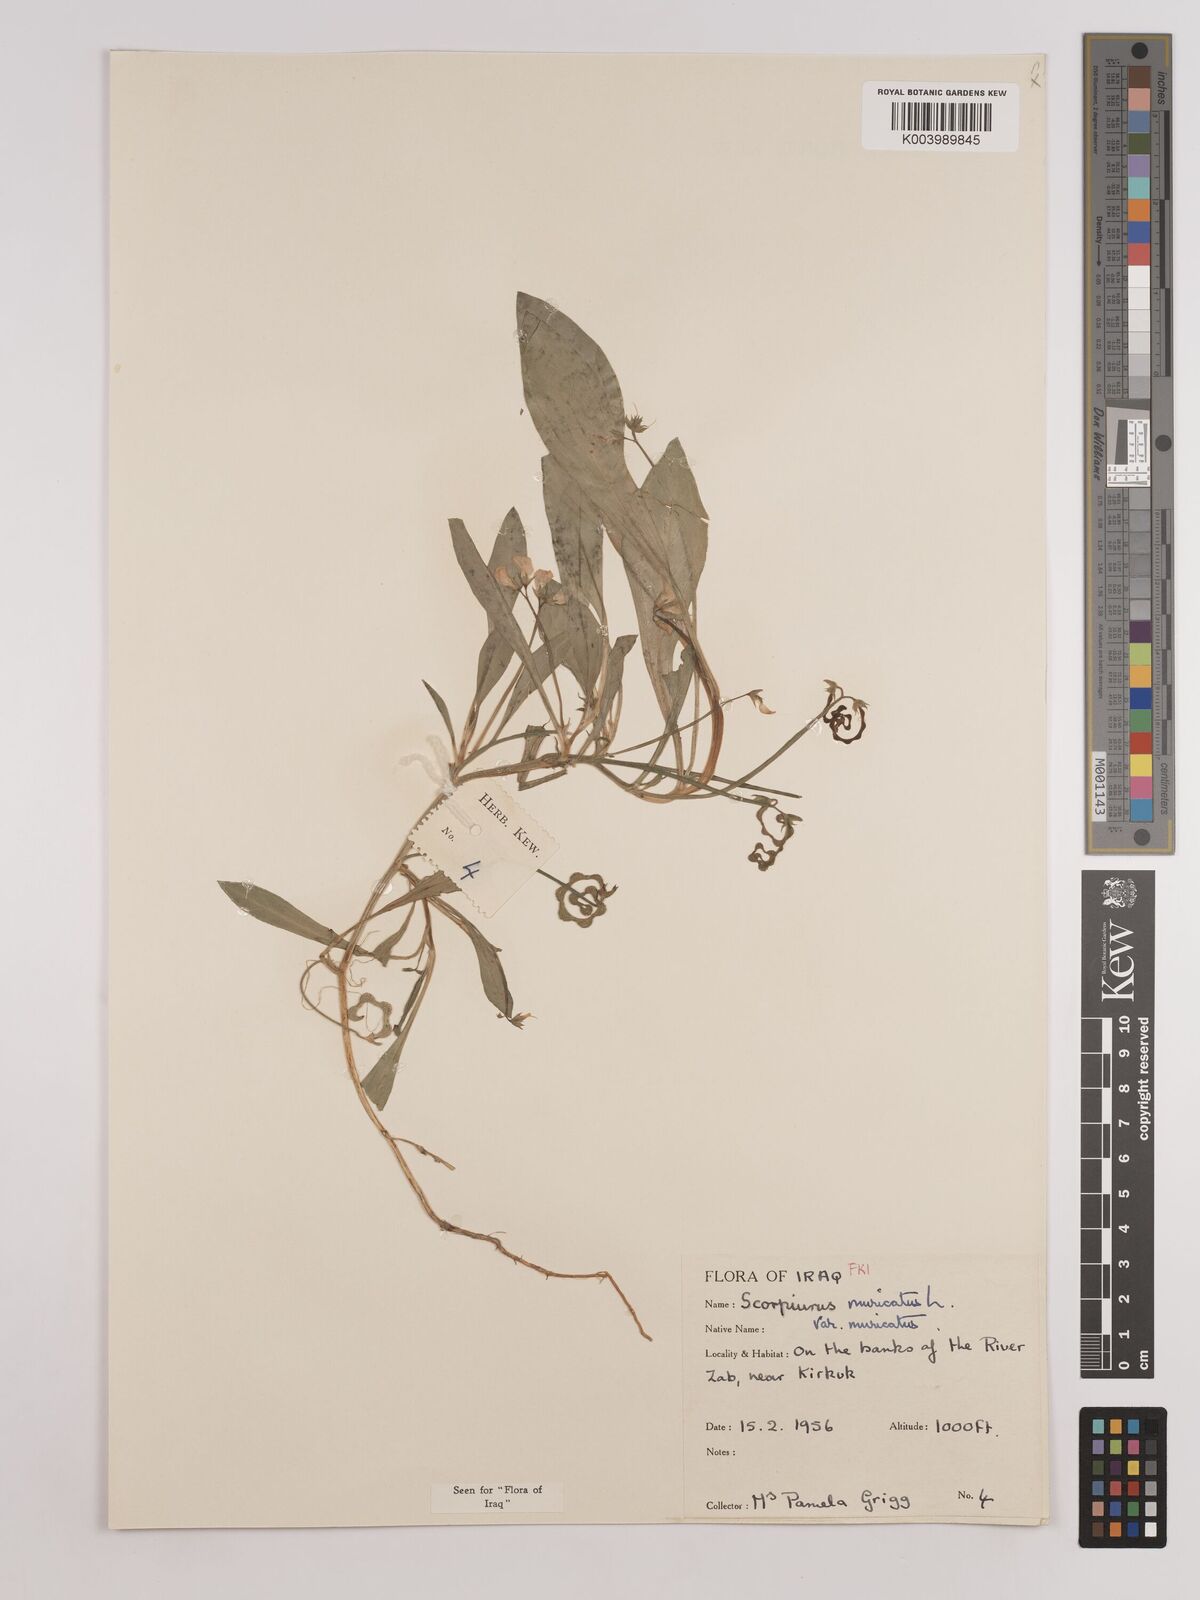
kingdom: Plantae
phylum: Tracheophyta
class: Magnoliopsida
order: Fabales
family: Fabaceae
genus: Scorpiurus
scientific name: Scorpiurus muricatus
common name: Caterpillar-plant
